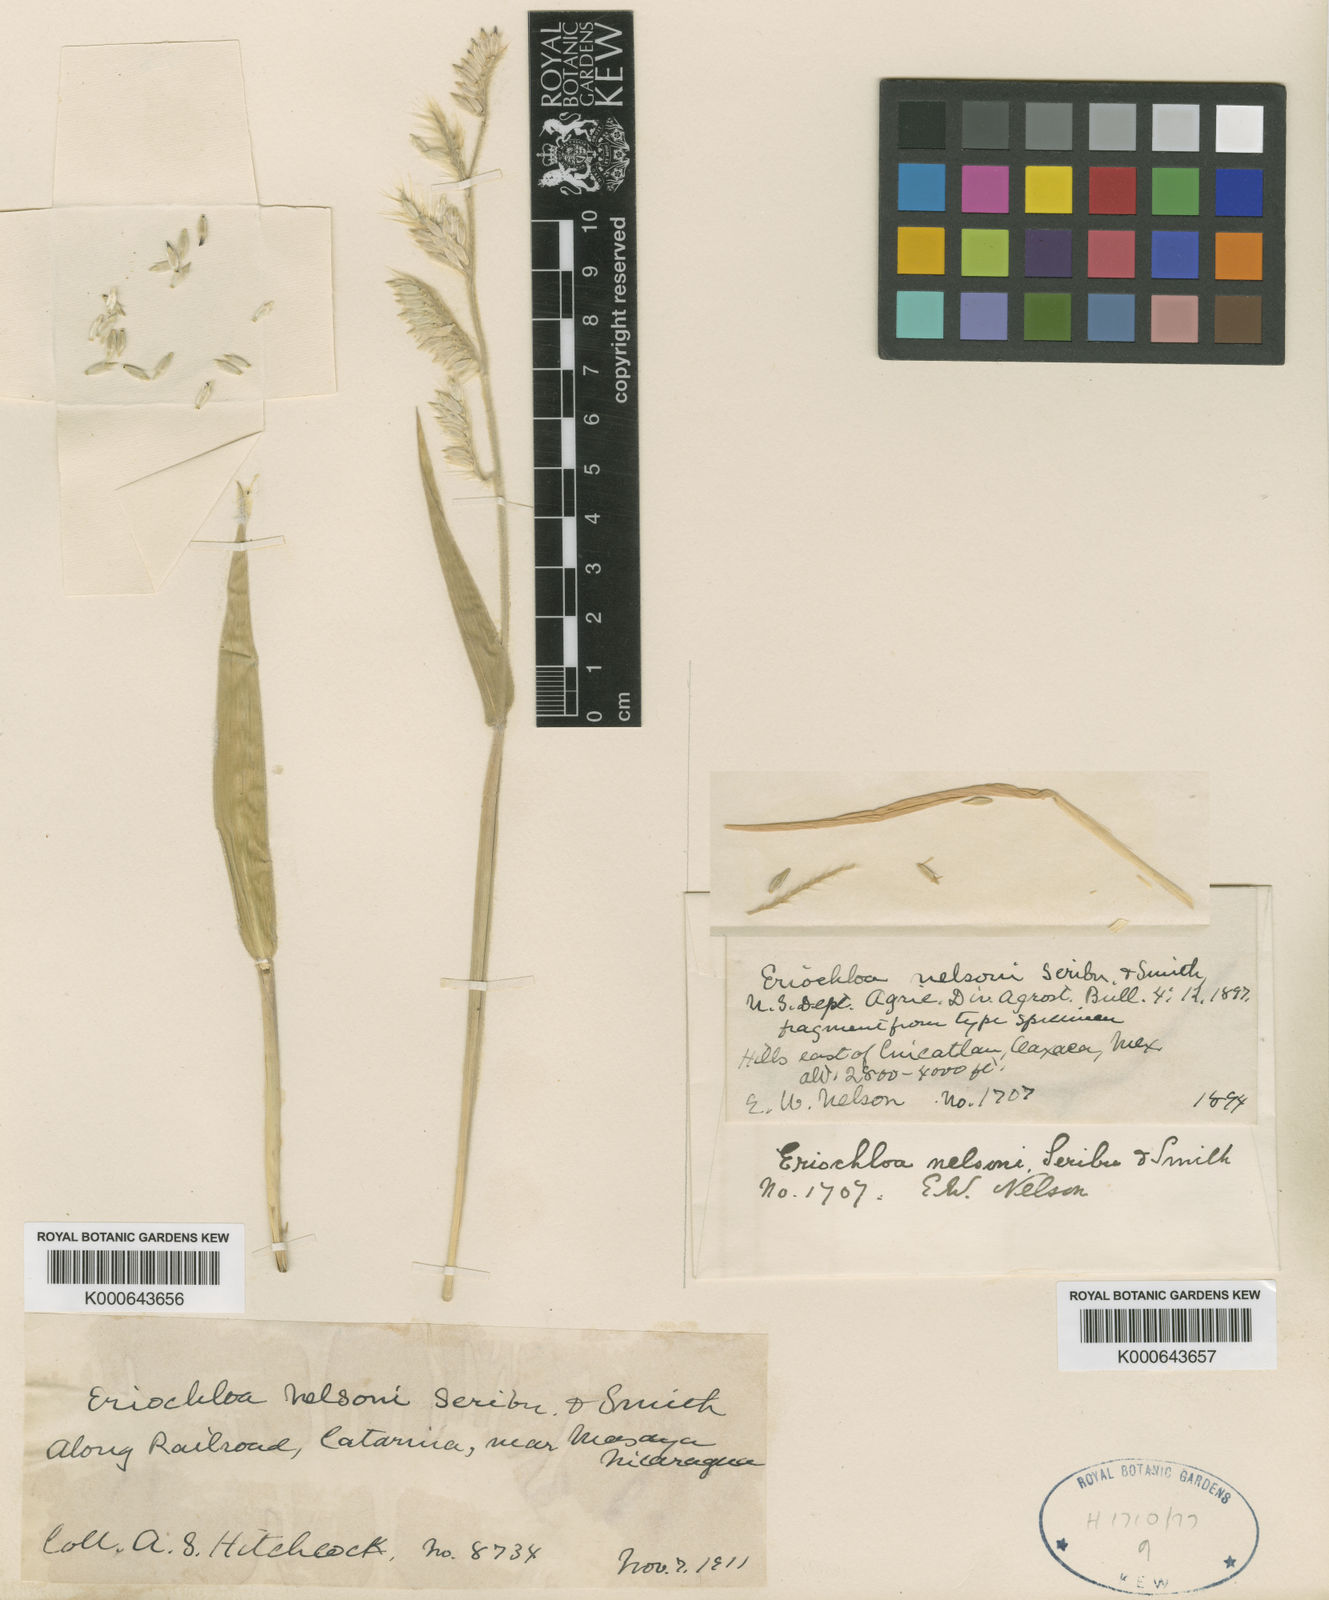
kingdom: Plantae
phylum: Tracheophyta
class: Liliopsida
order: Poales
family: Poaceae
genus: Eriochloa
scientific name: Eriochloa nelsonii
